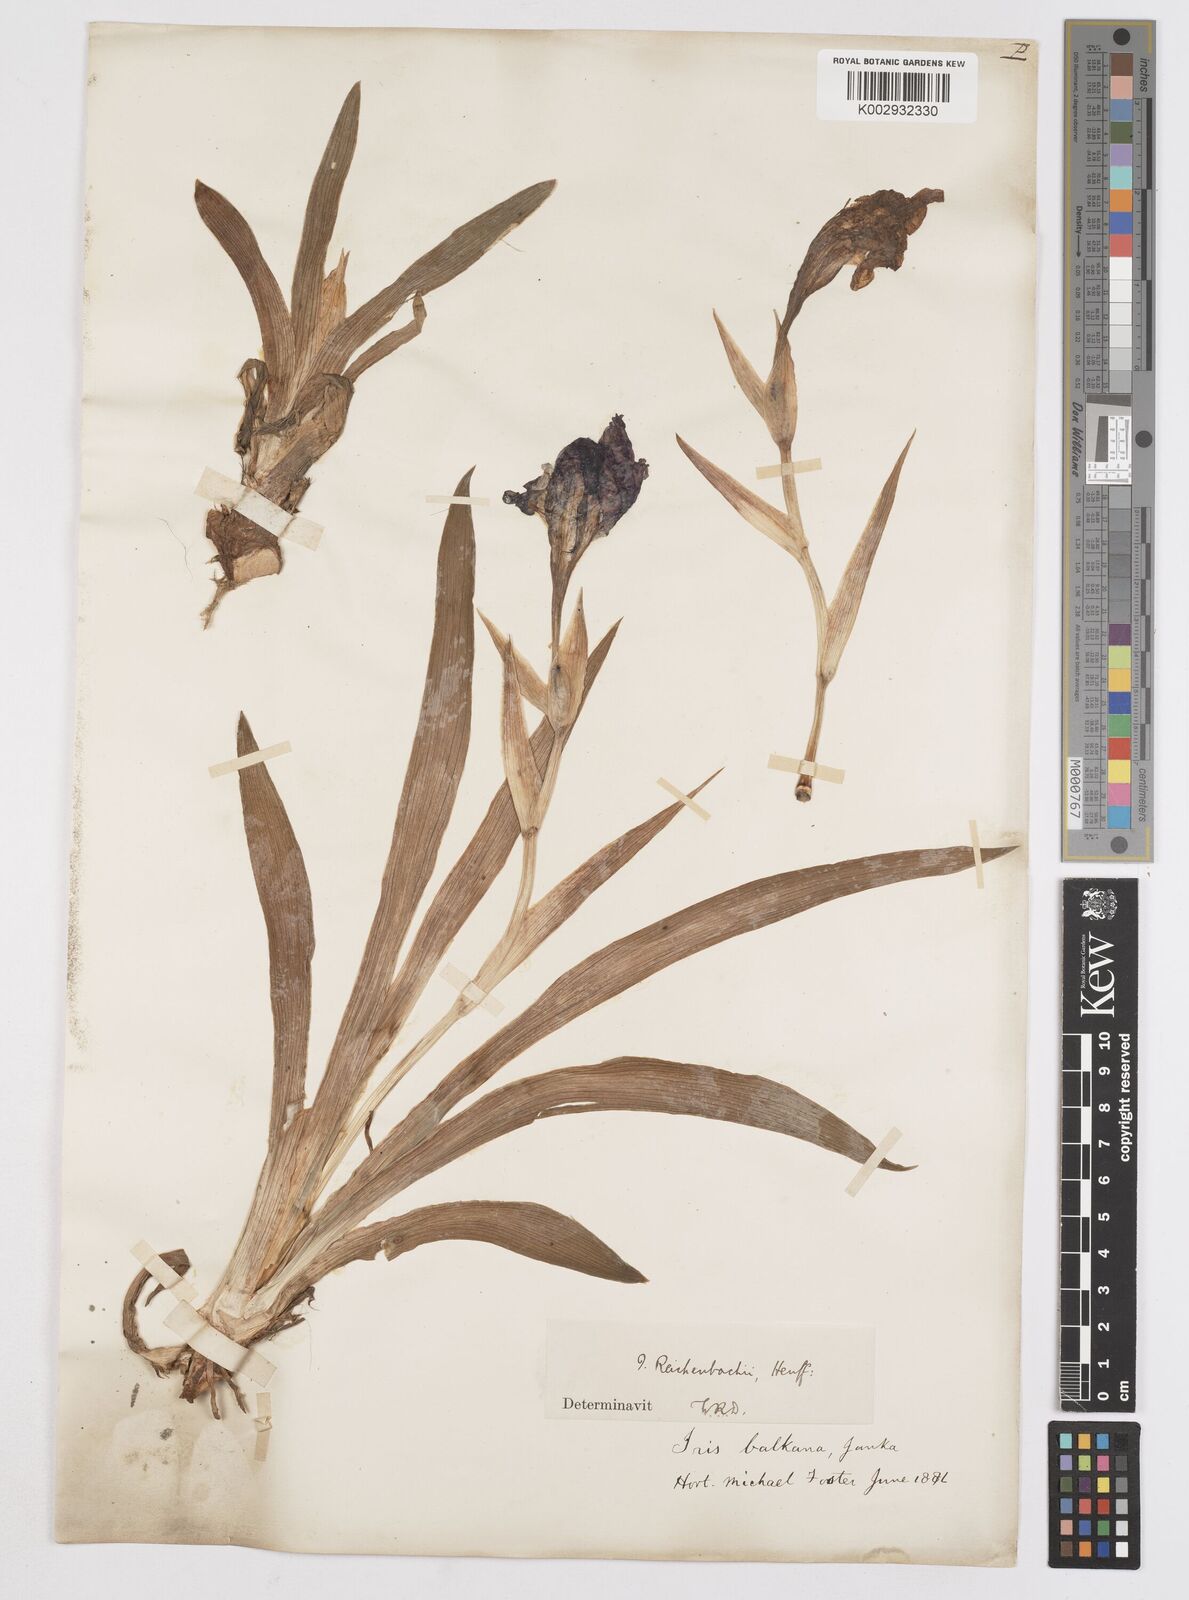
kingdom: Plantae
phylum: Tracheophyta
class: Liliopsida
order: Asparagales
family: Iridaceae
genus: Iris
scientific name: Iris reichenbachii
